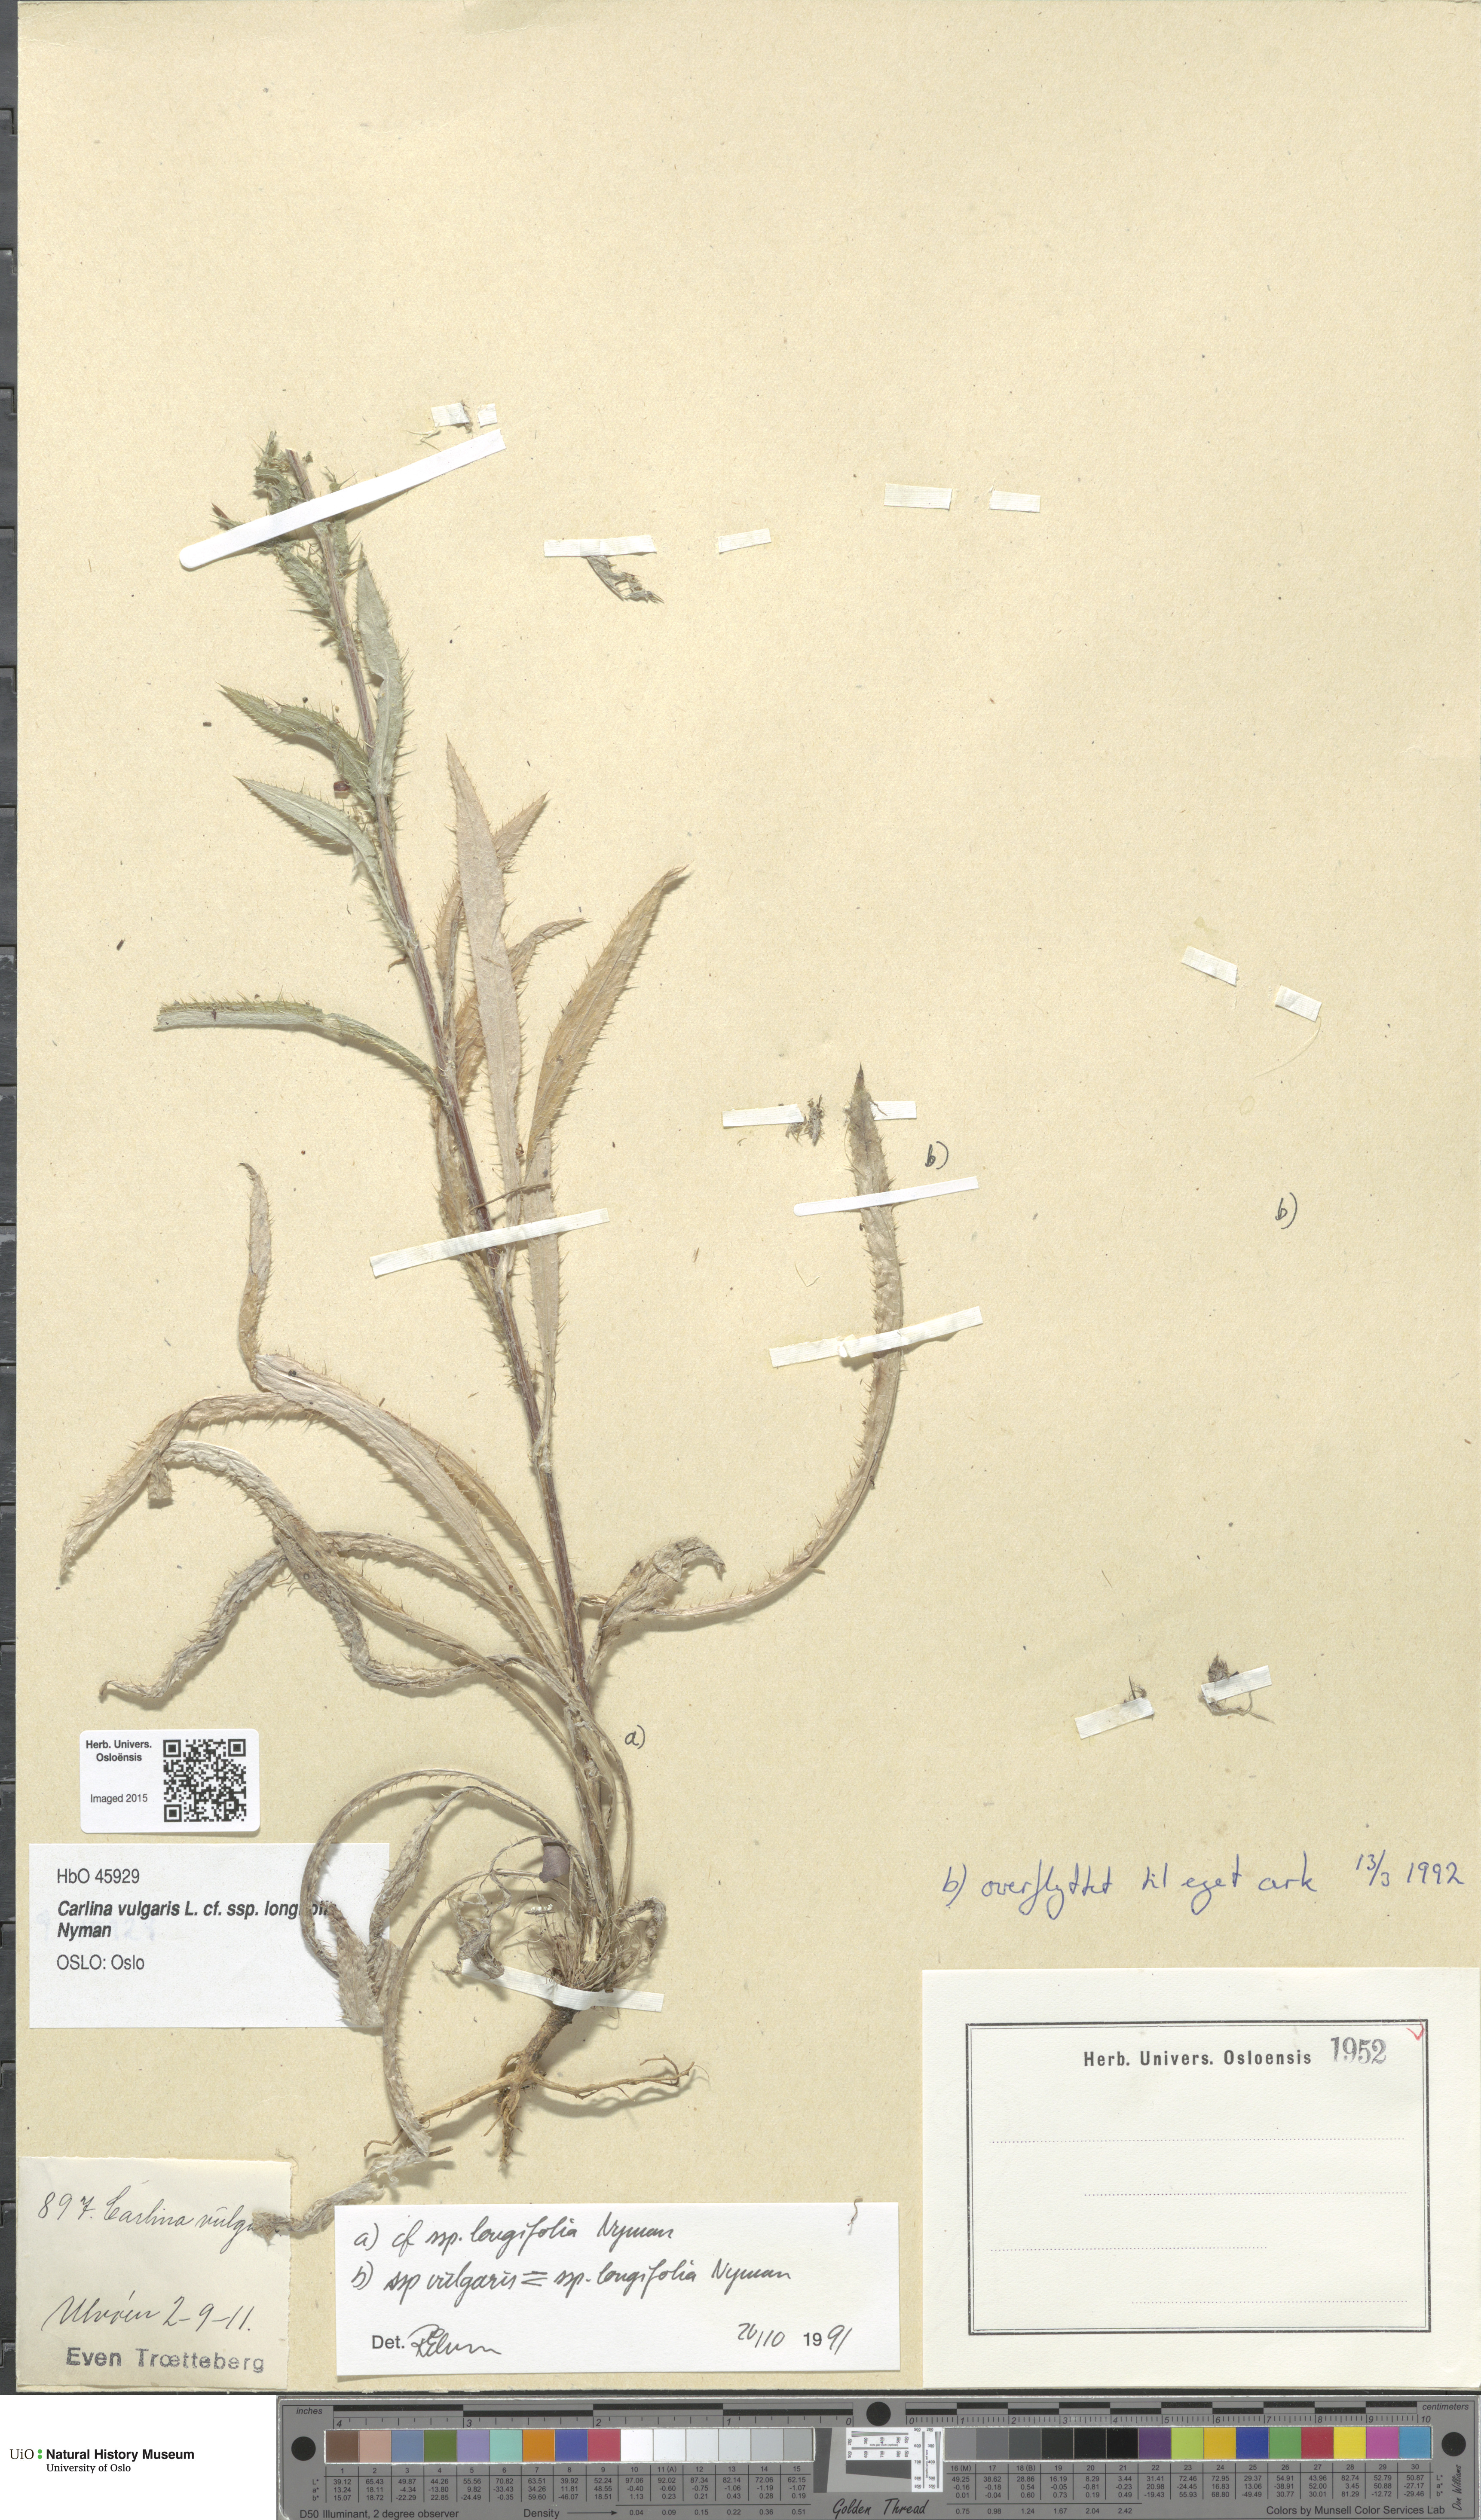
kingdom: Plantae
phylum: Tracheophyta
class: Magnoliopsida
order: Asterales
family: Asteraceae
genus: Carlina
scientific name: Carlina biebersteinii
